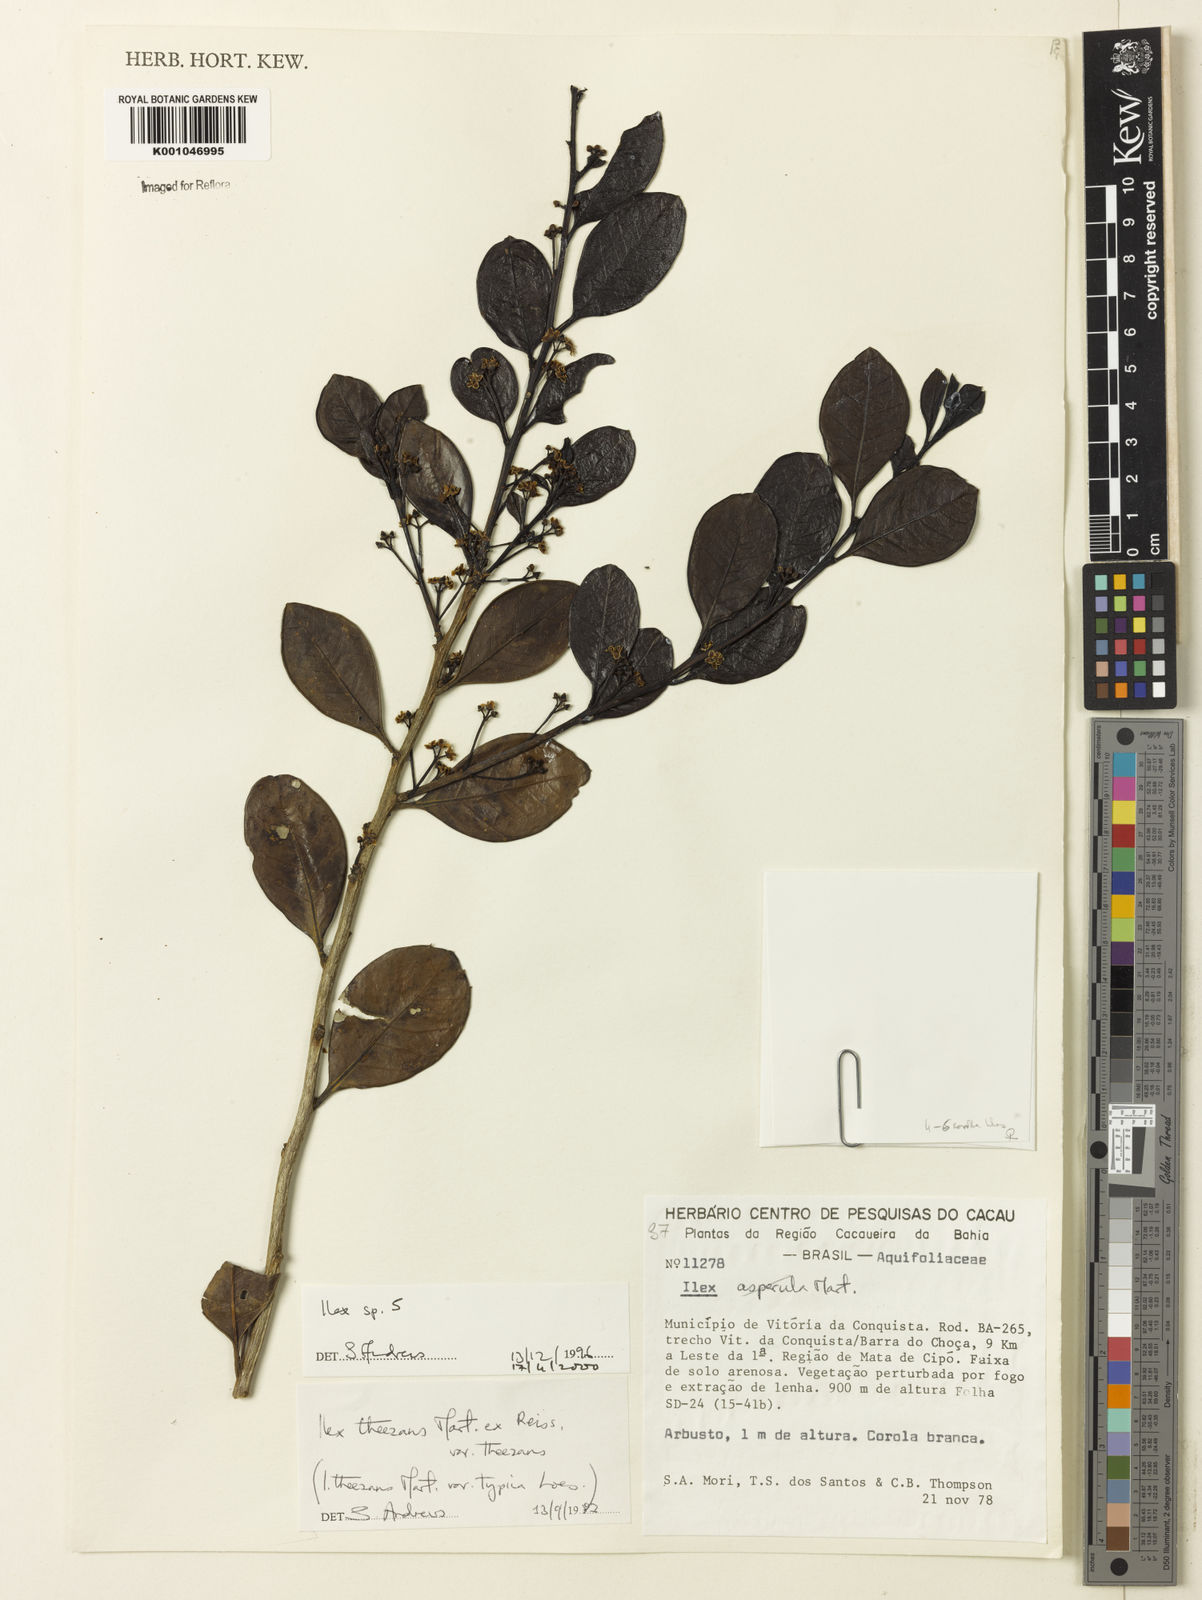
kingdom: Plantae
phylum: Tracheophyta
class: Magnoliopsida
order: Aquifoliales
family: Aquifoliaceae
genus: Ilex
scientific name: Ilex
